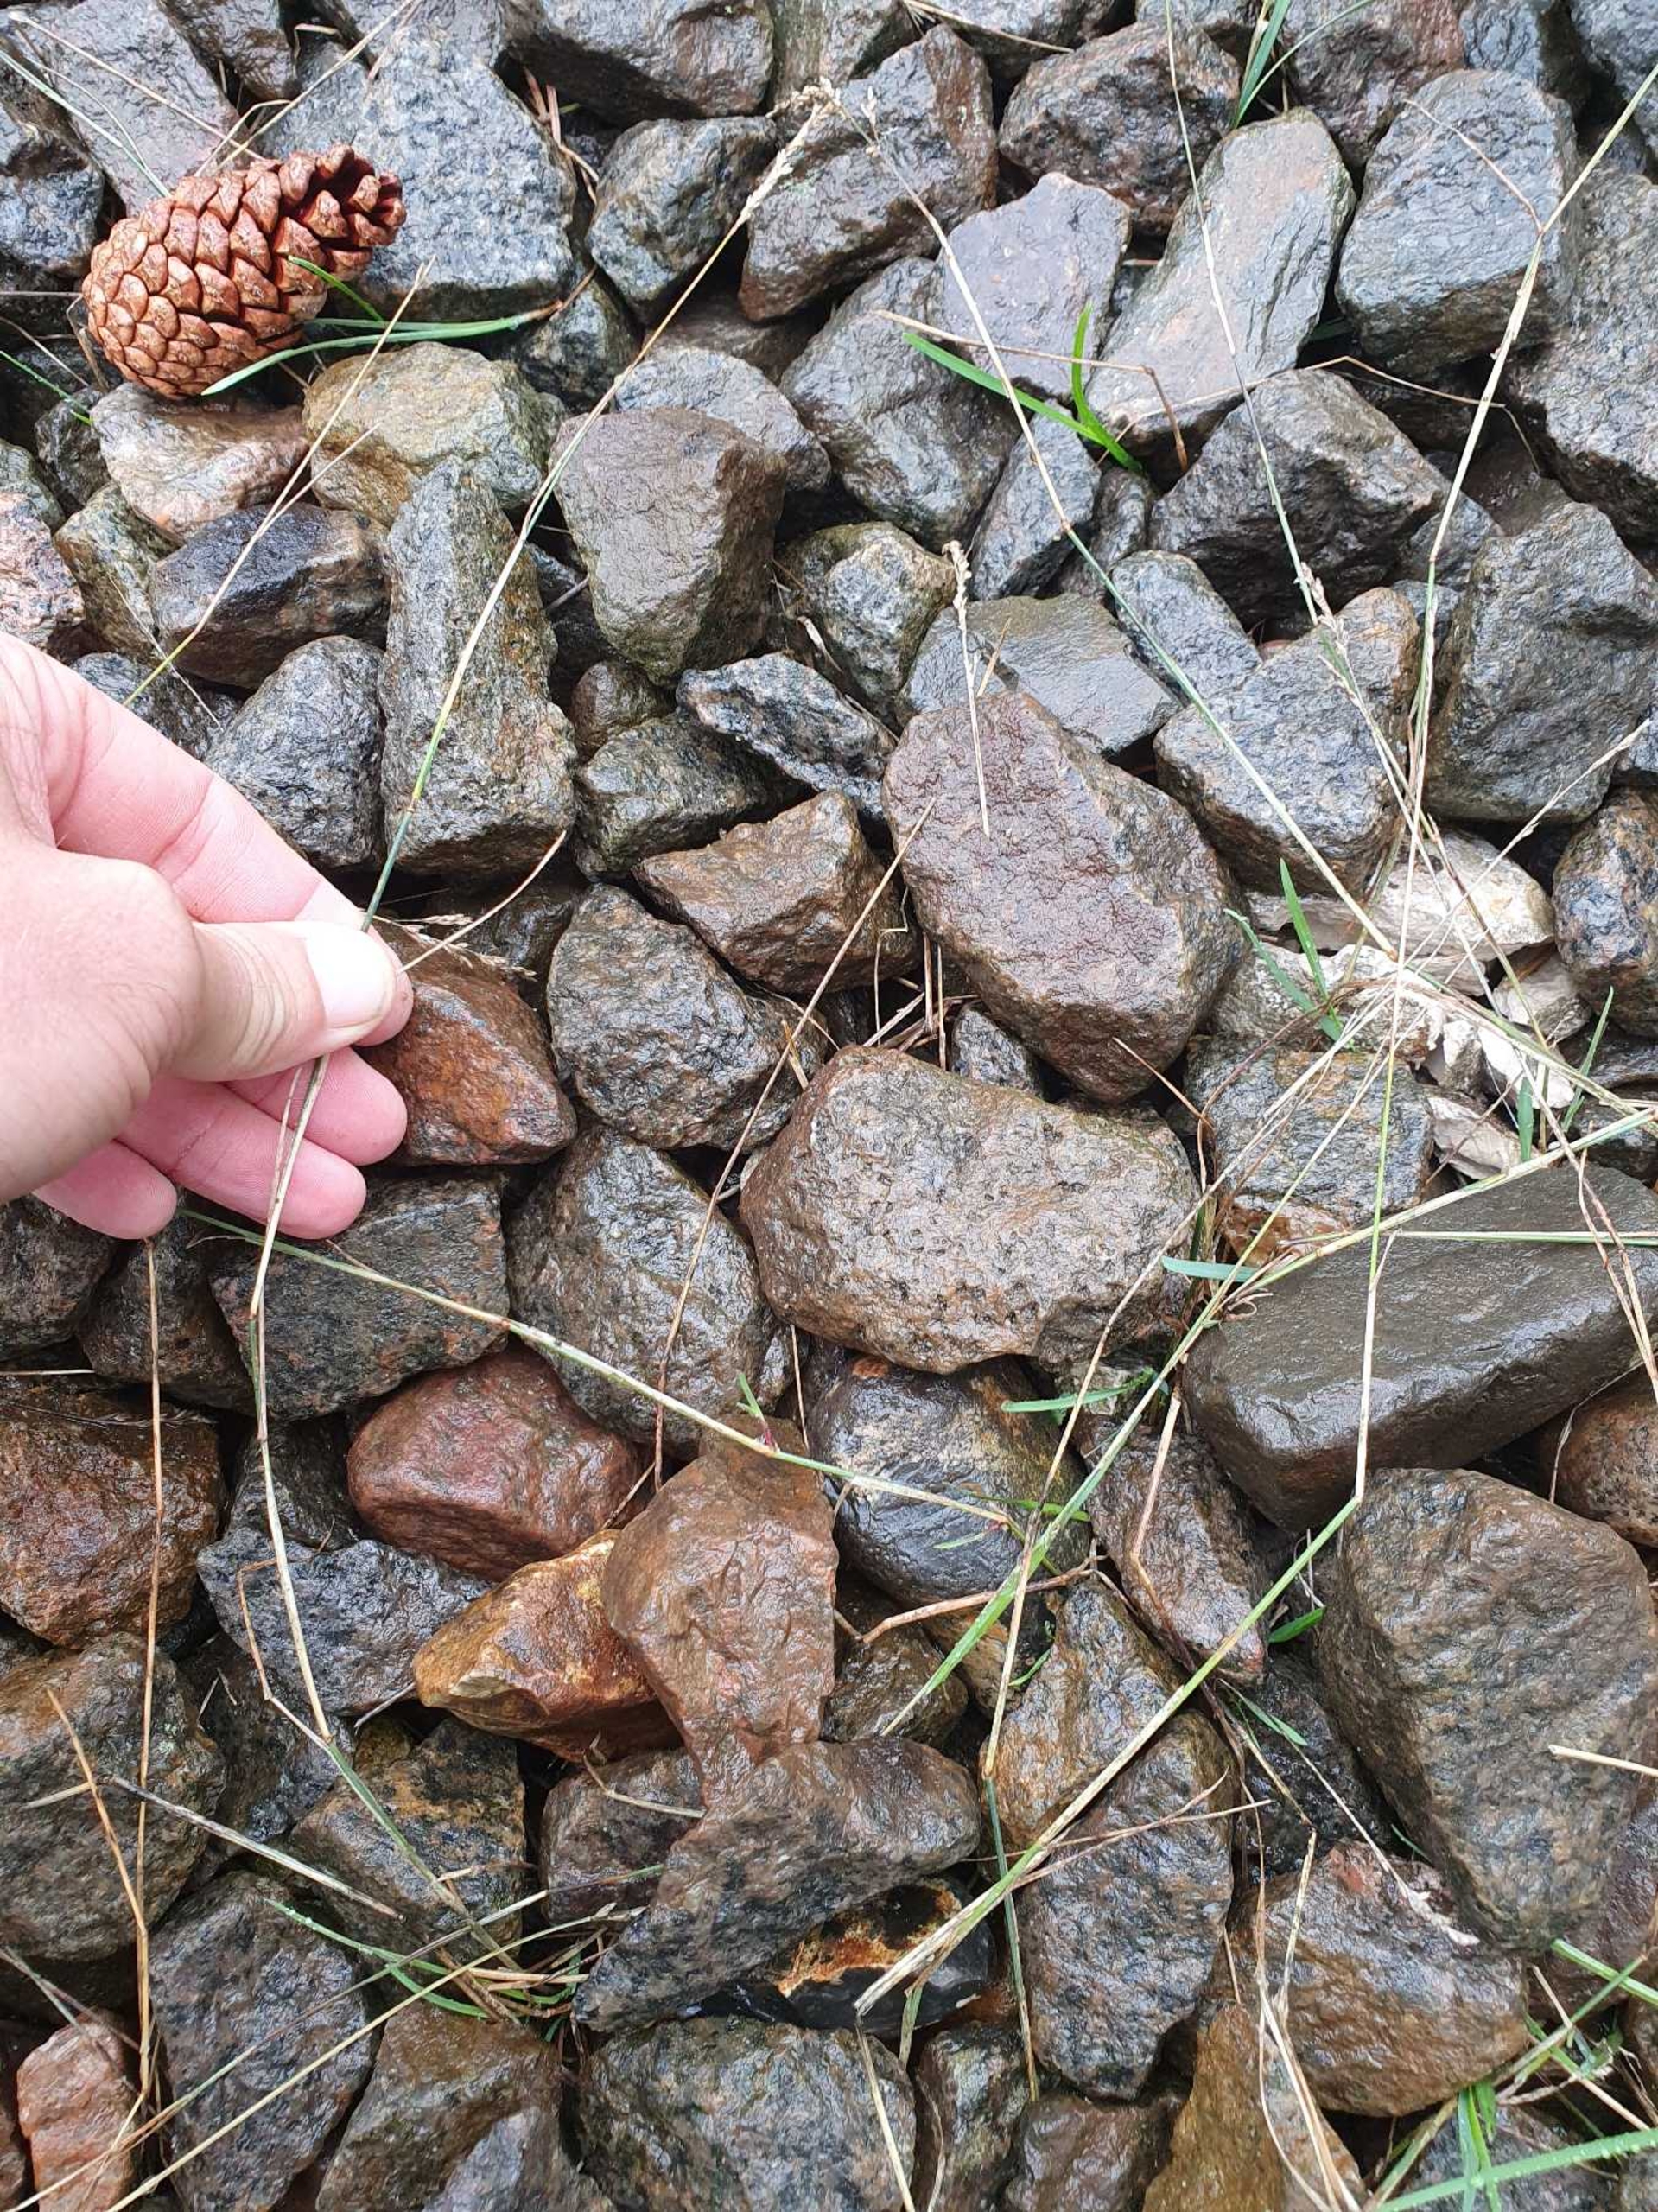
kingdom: Plantae
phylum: Tracheophyta
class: Liliopsida
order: Poales
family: Poaceae
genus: Poa
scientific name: Poa compressa
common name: Fladstrået rapgræs
